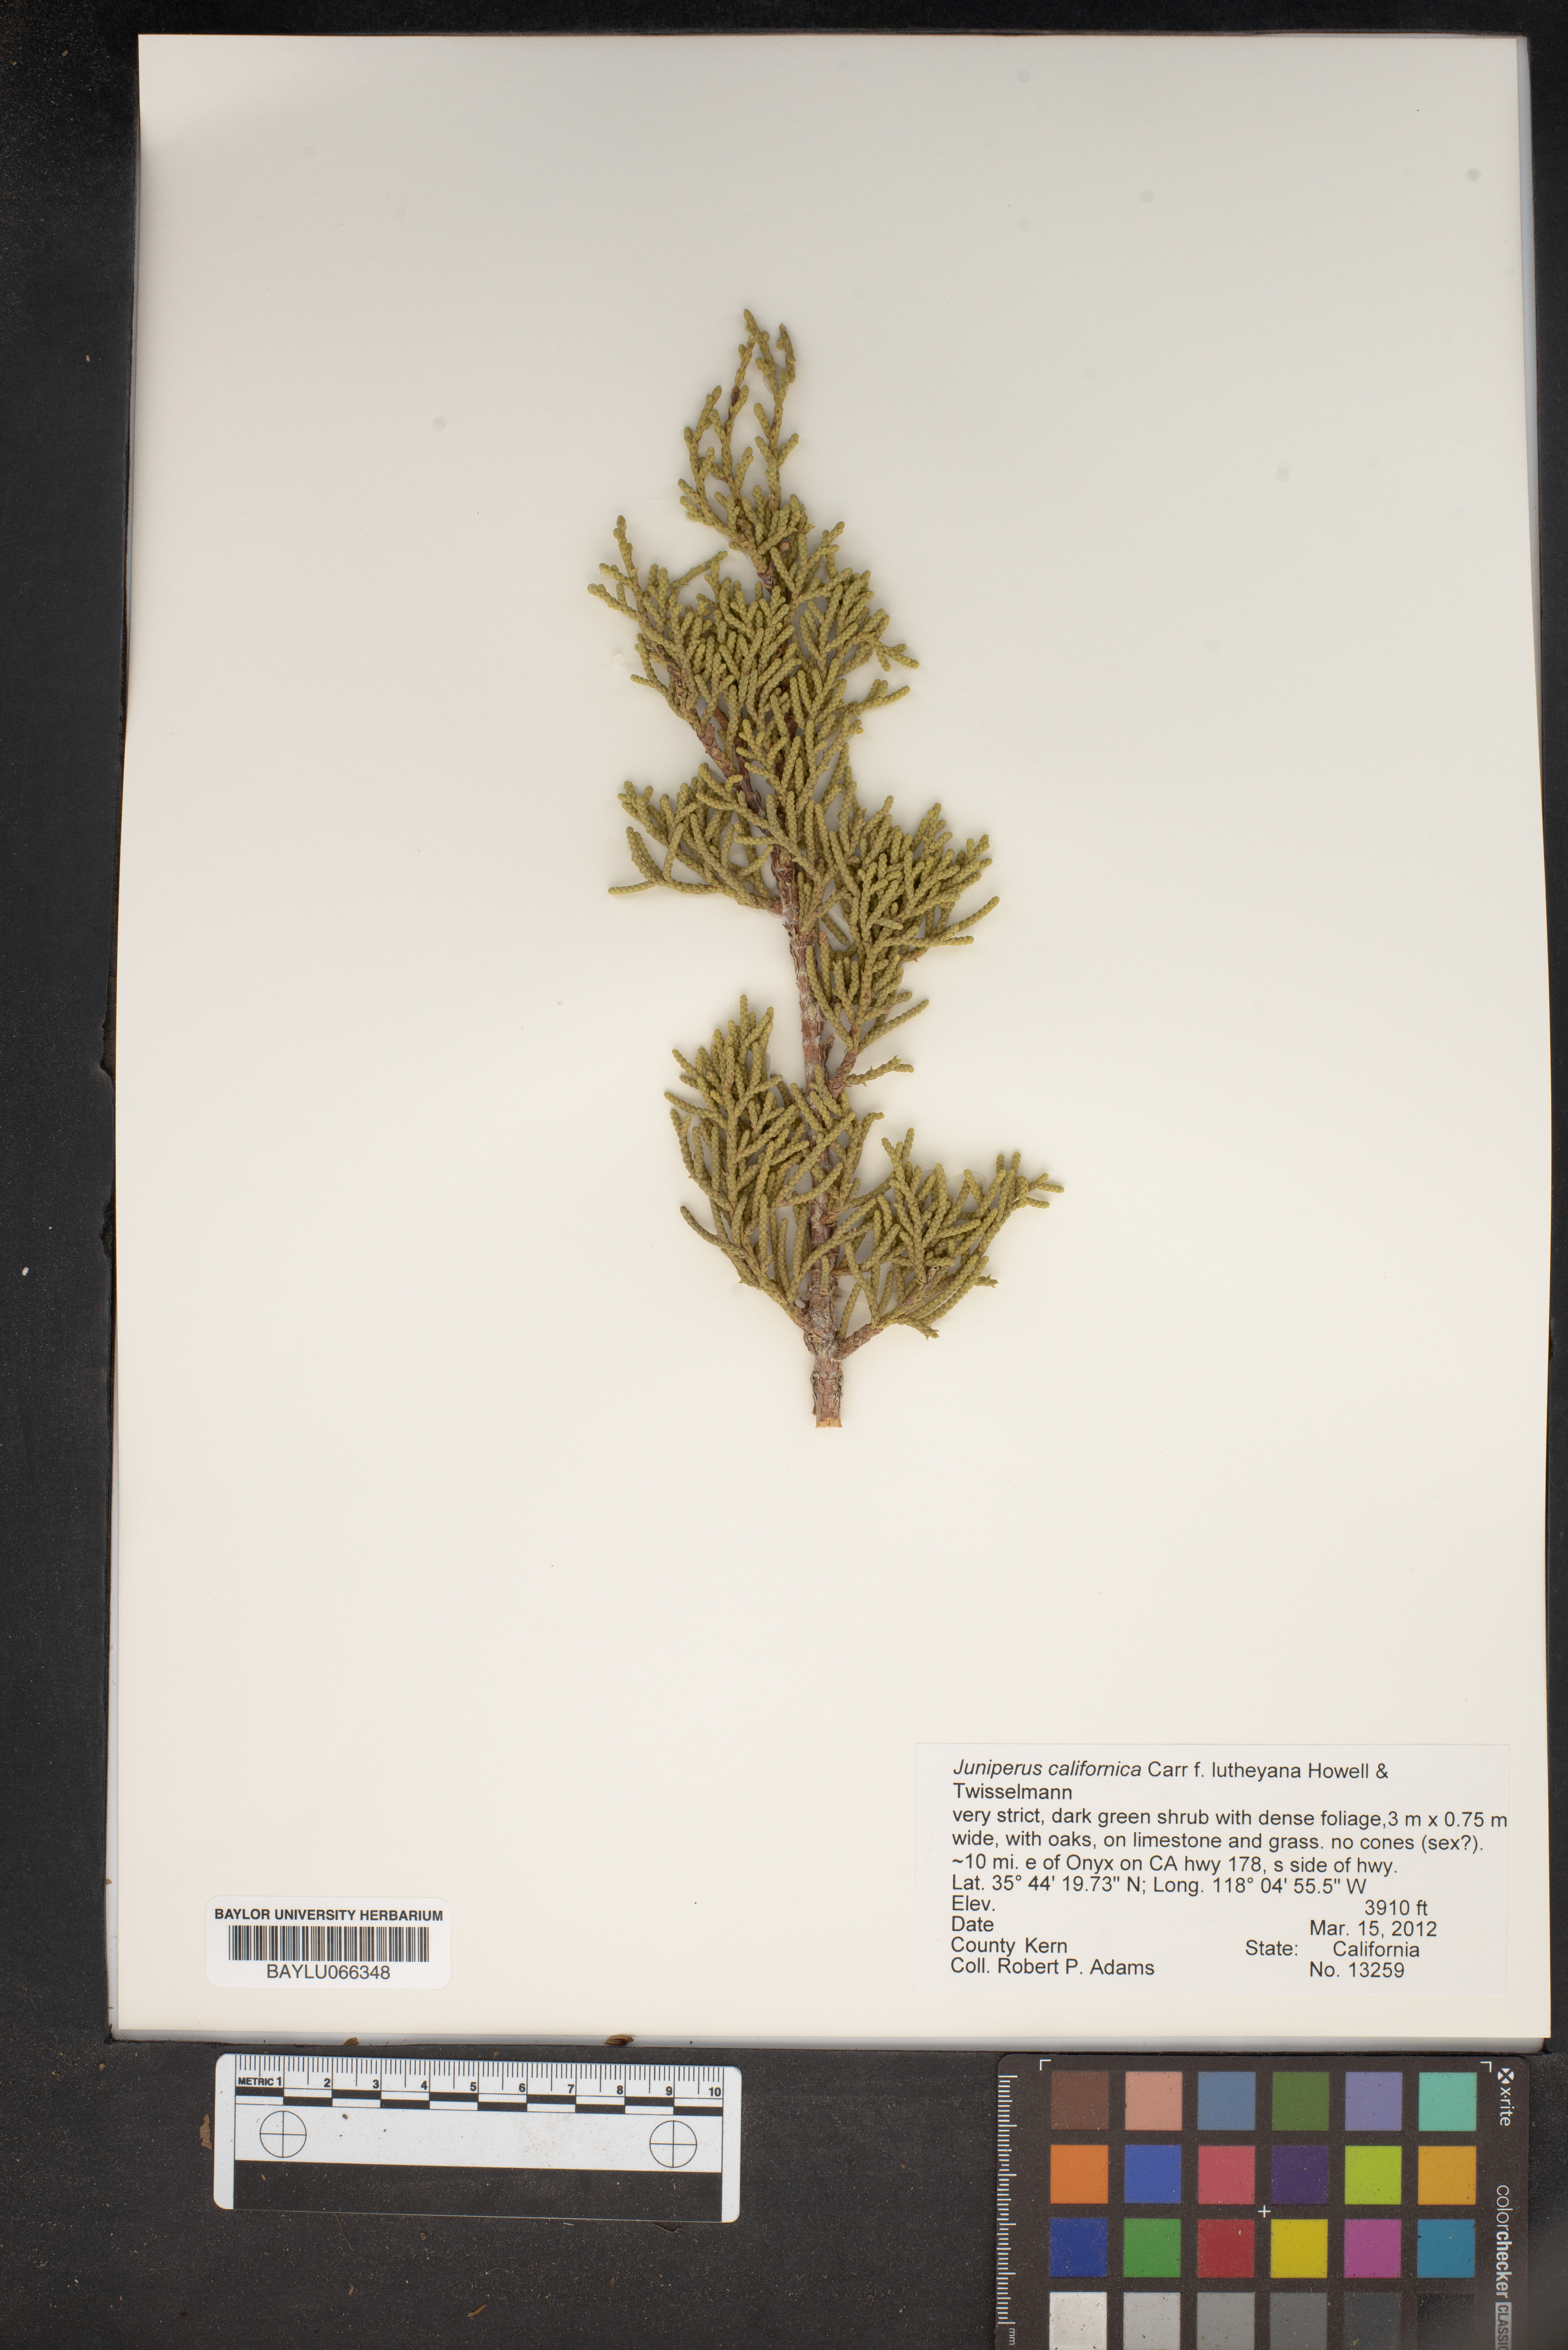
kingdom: Plantae
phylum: Tracheophyta
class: Pinopsida
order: Pinales
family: Cupressaceae
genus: Juniperus
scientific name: Juniperus californica
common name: California juniper
